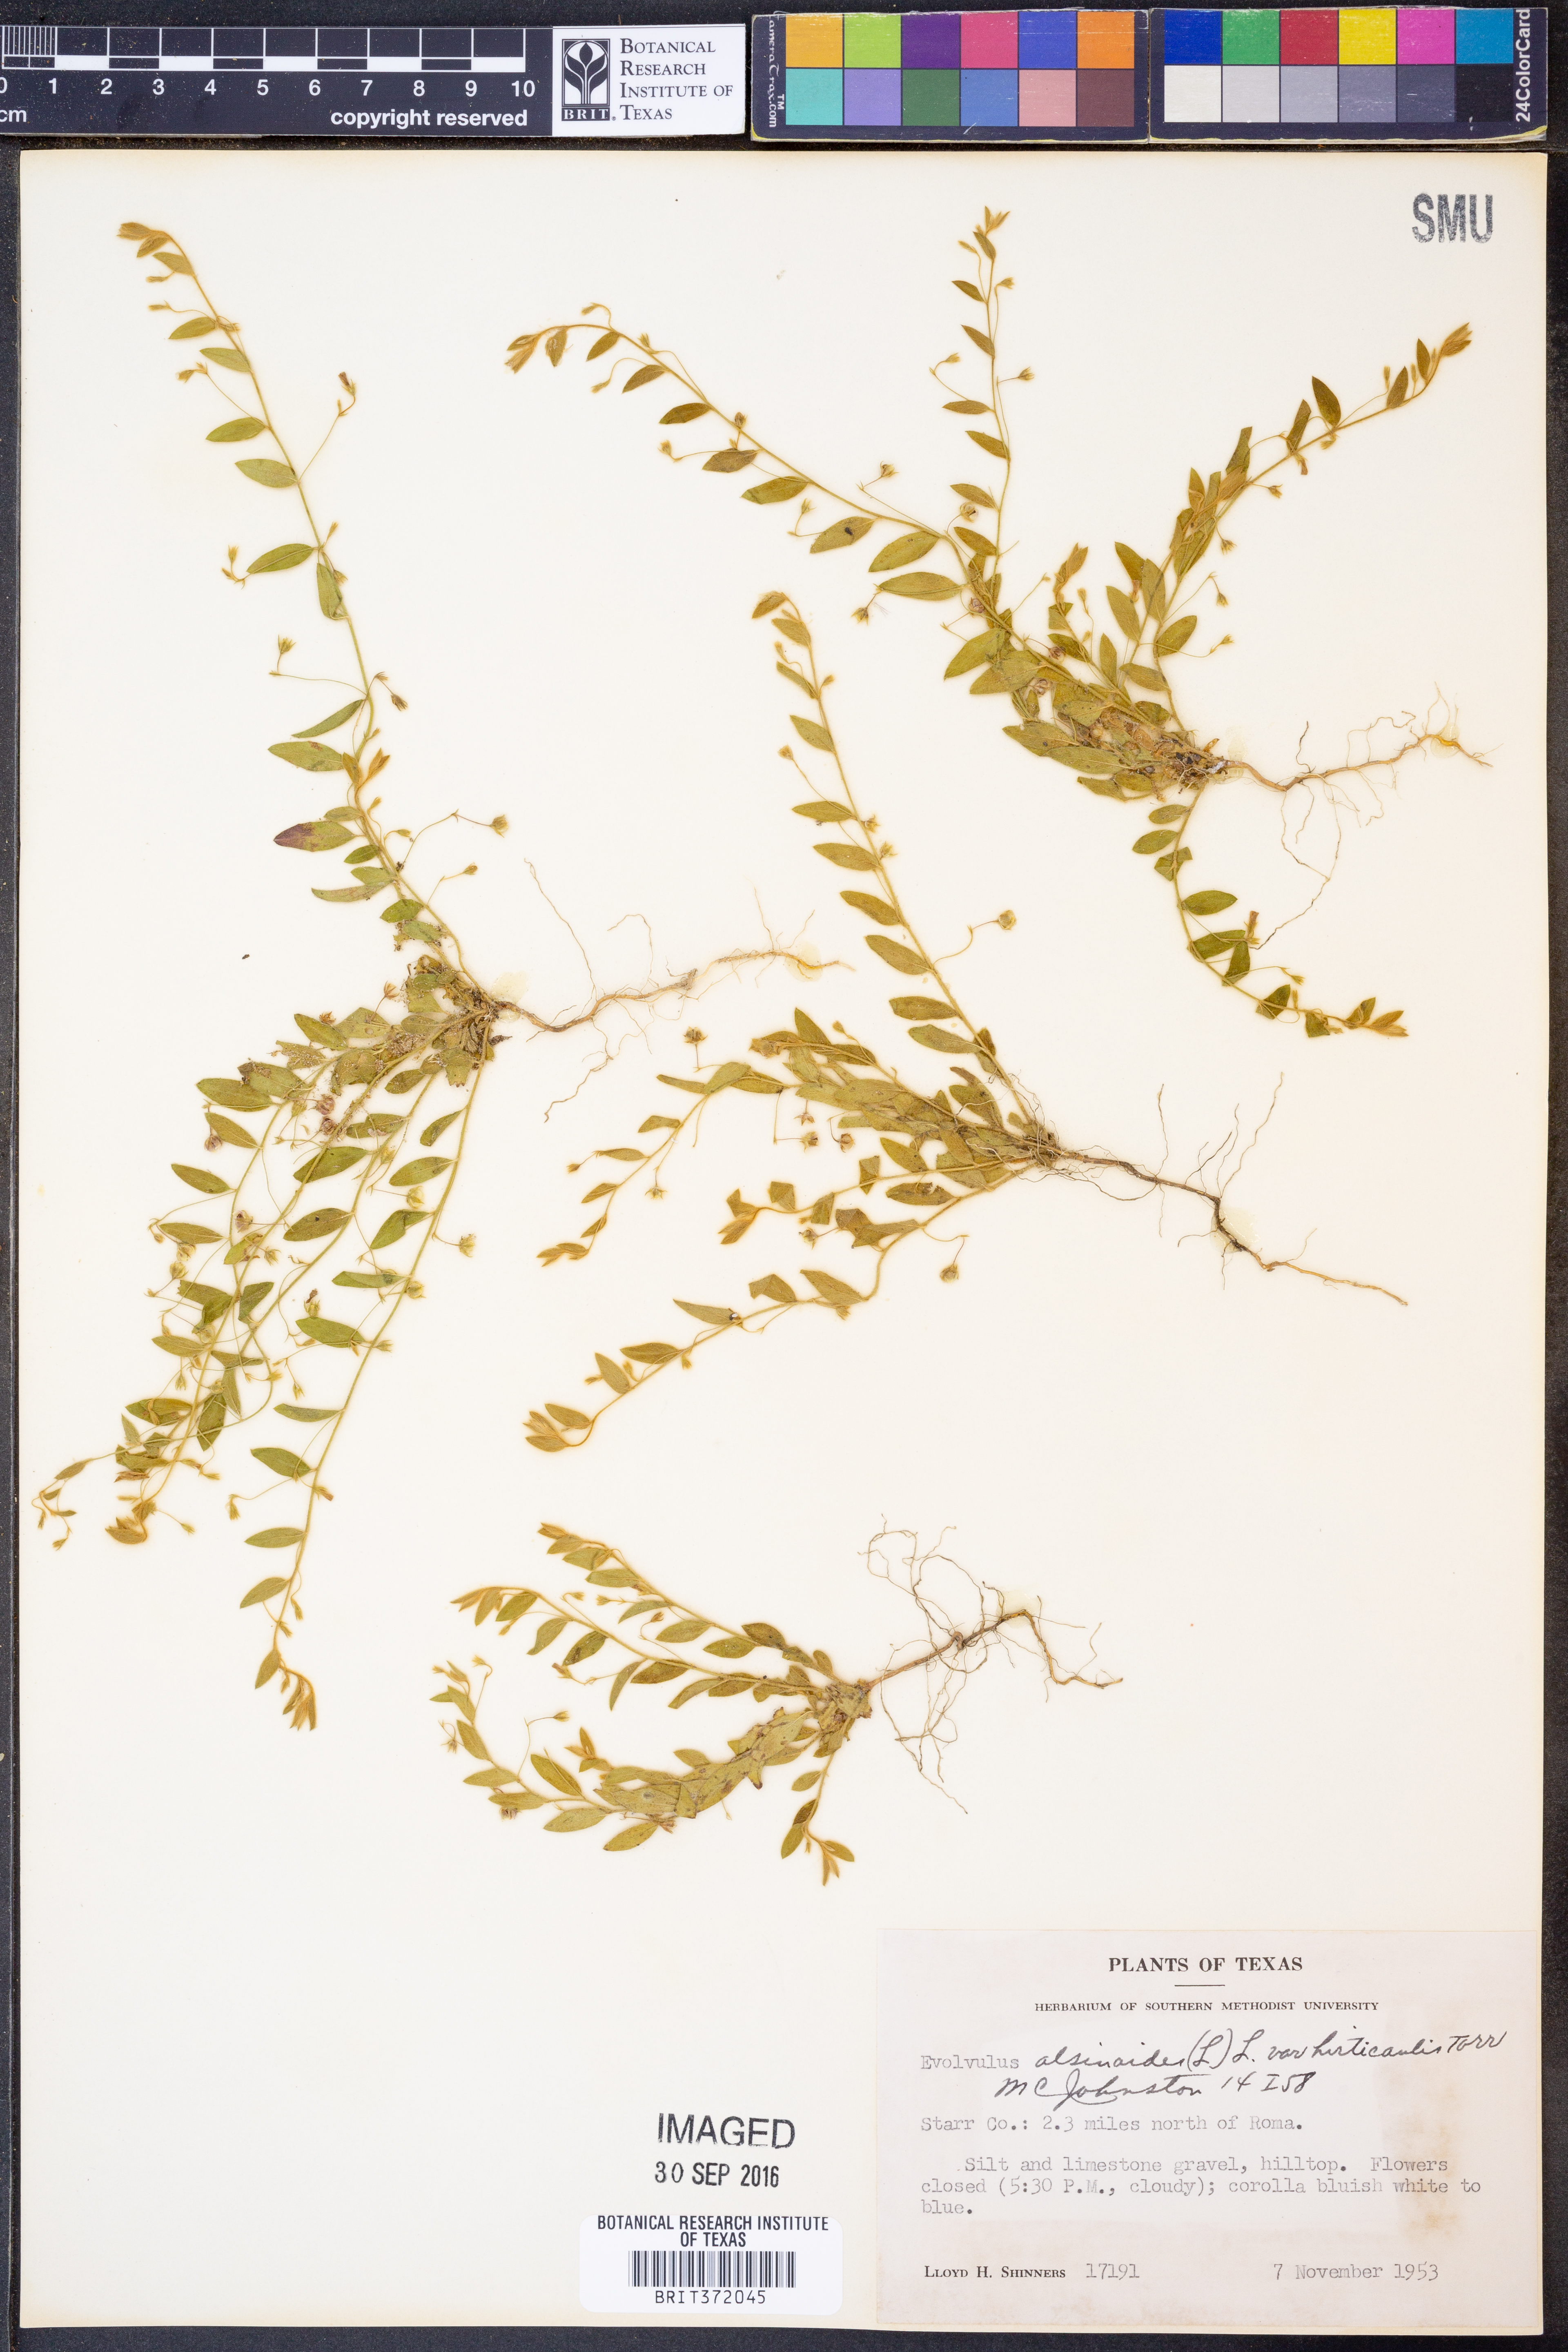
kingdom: Plantae
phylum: Tracheophyta
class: Magnoliopsida
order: Solanales
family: Convolvulaceae
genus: Evolvulus
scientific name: Evolvulus alsinoides
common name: Slender dwarf morning-glory
